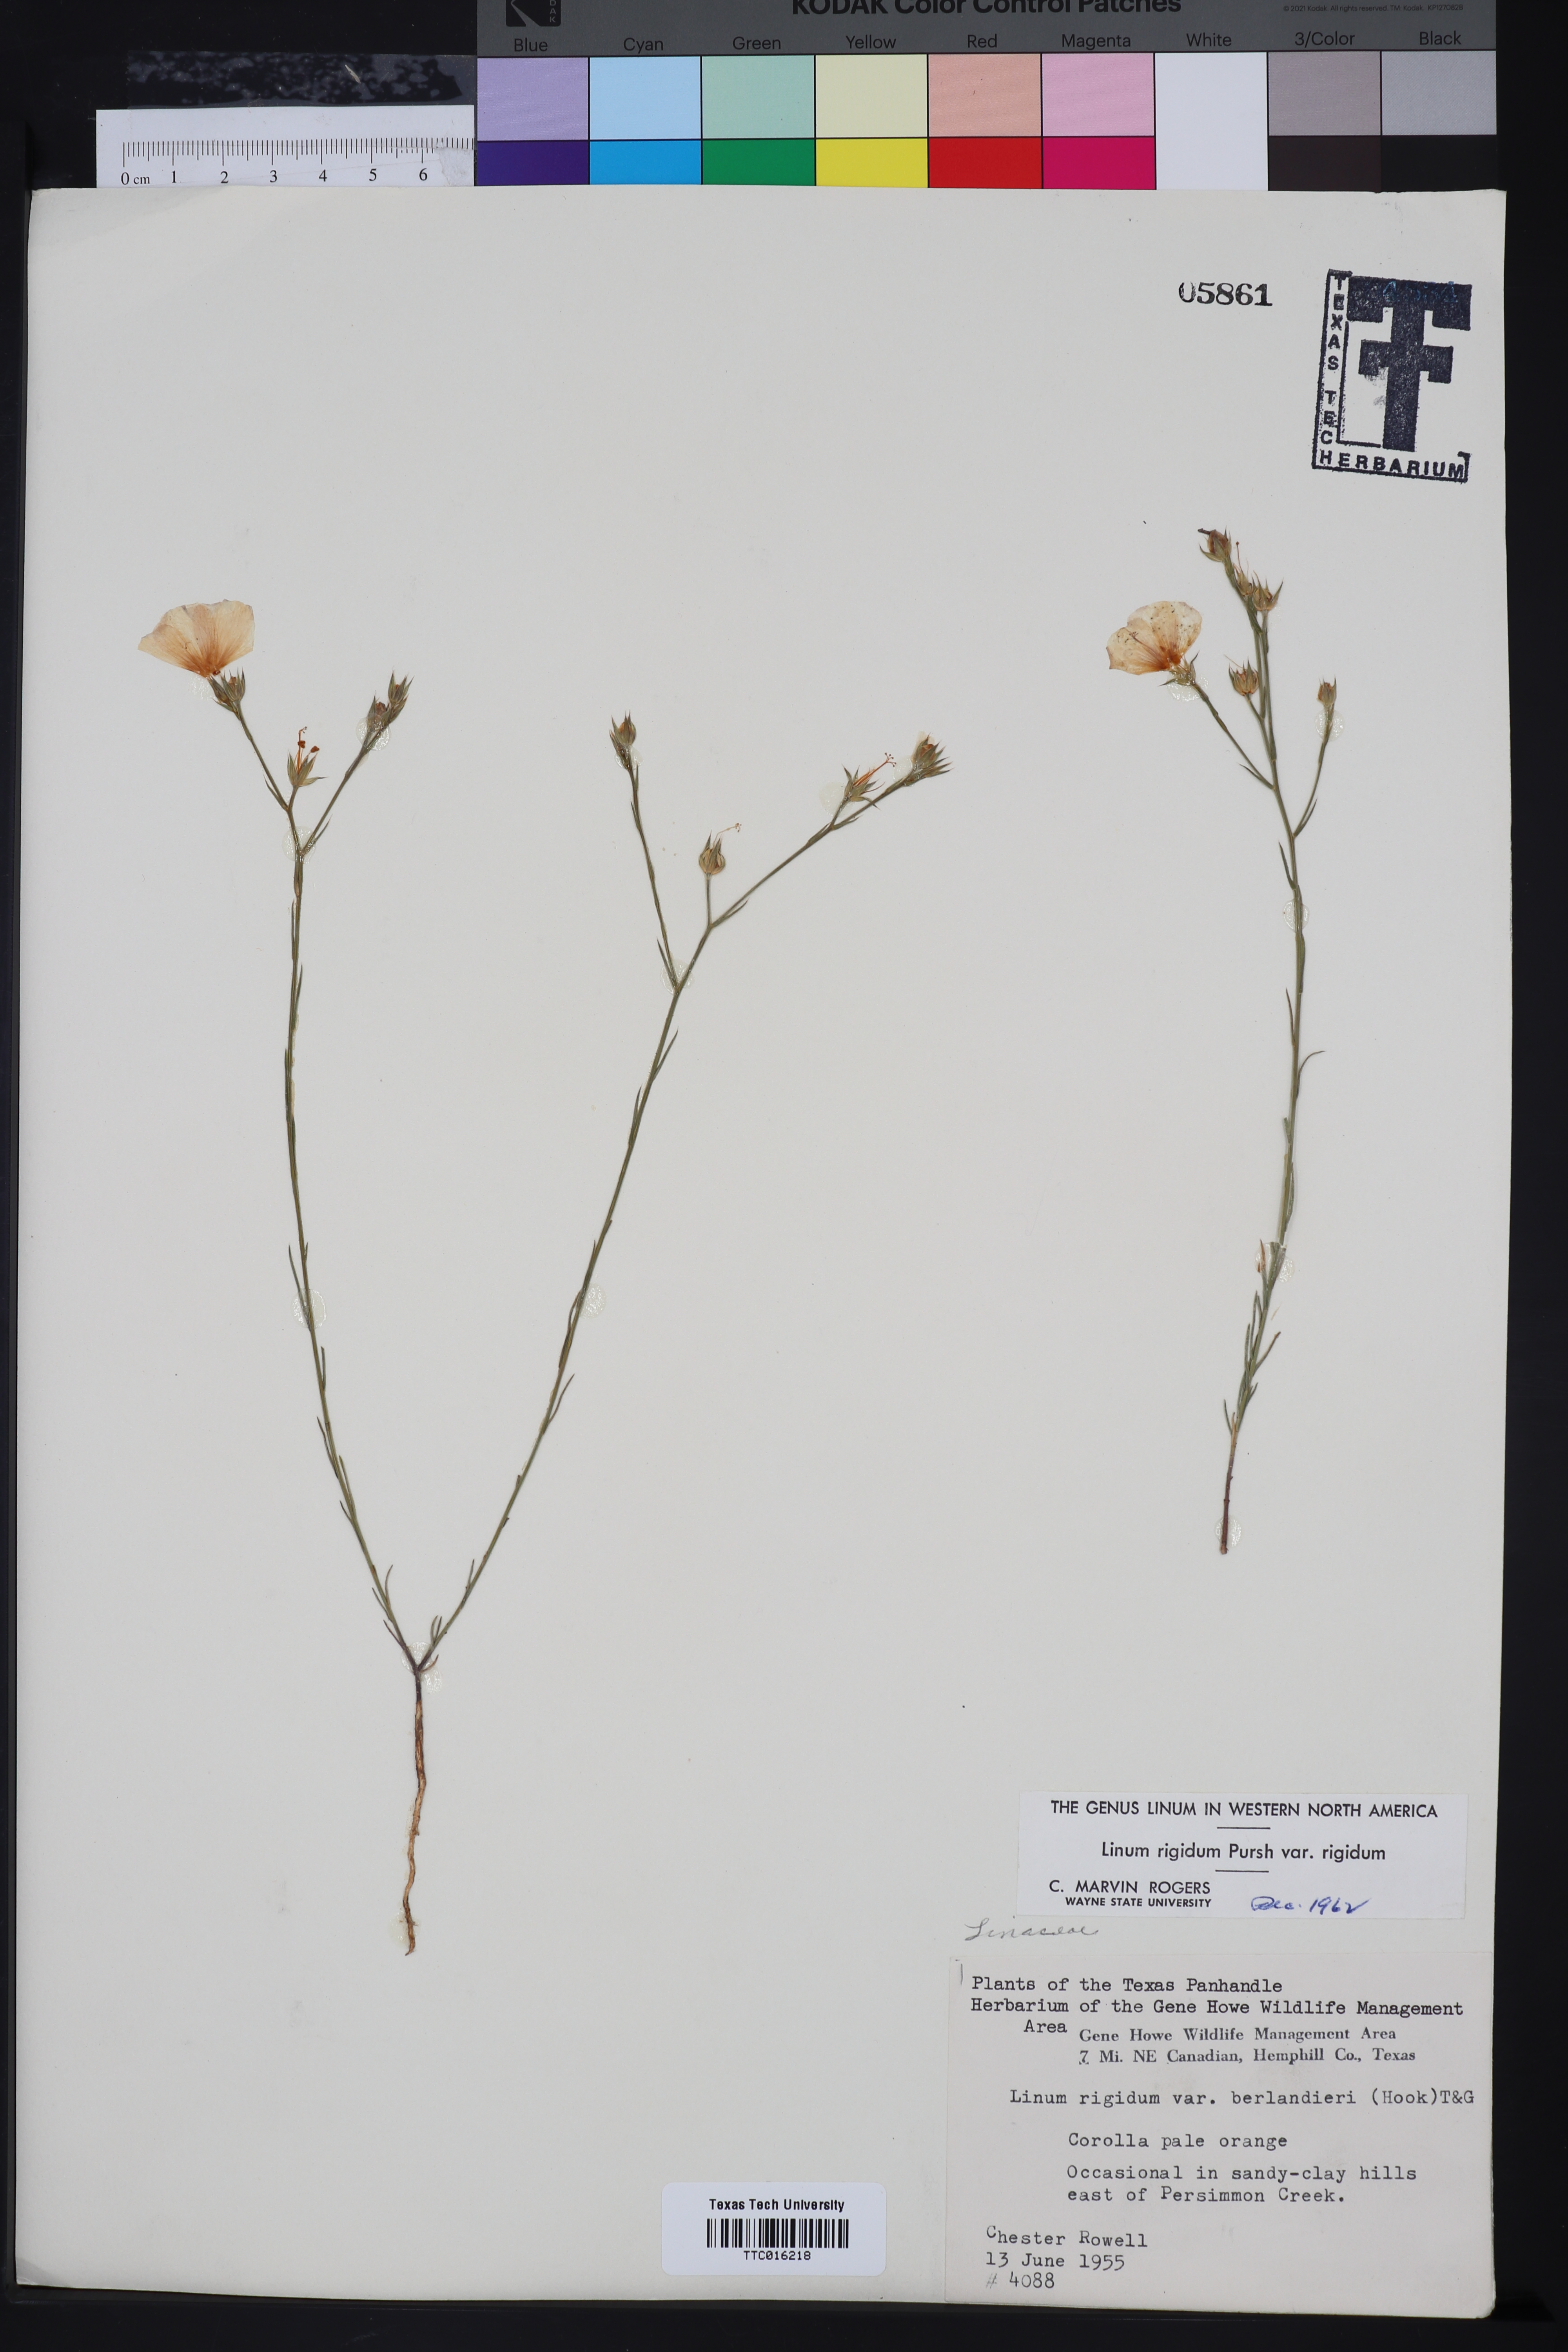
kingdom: Plantae
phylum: Tracheophyta
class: Magnoliopsida
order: Malpighiales
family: Linaceae
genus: Linum
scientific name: Linum rigidum
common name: Stiff-stem flax
